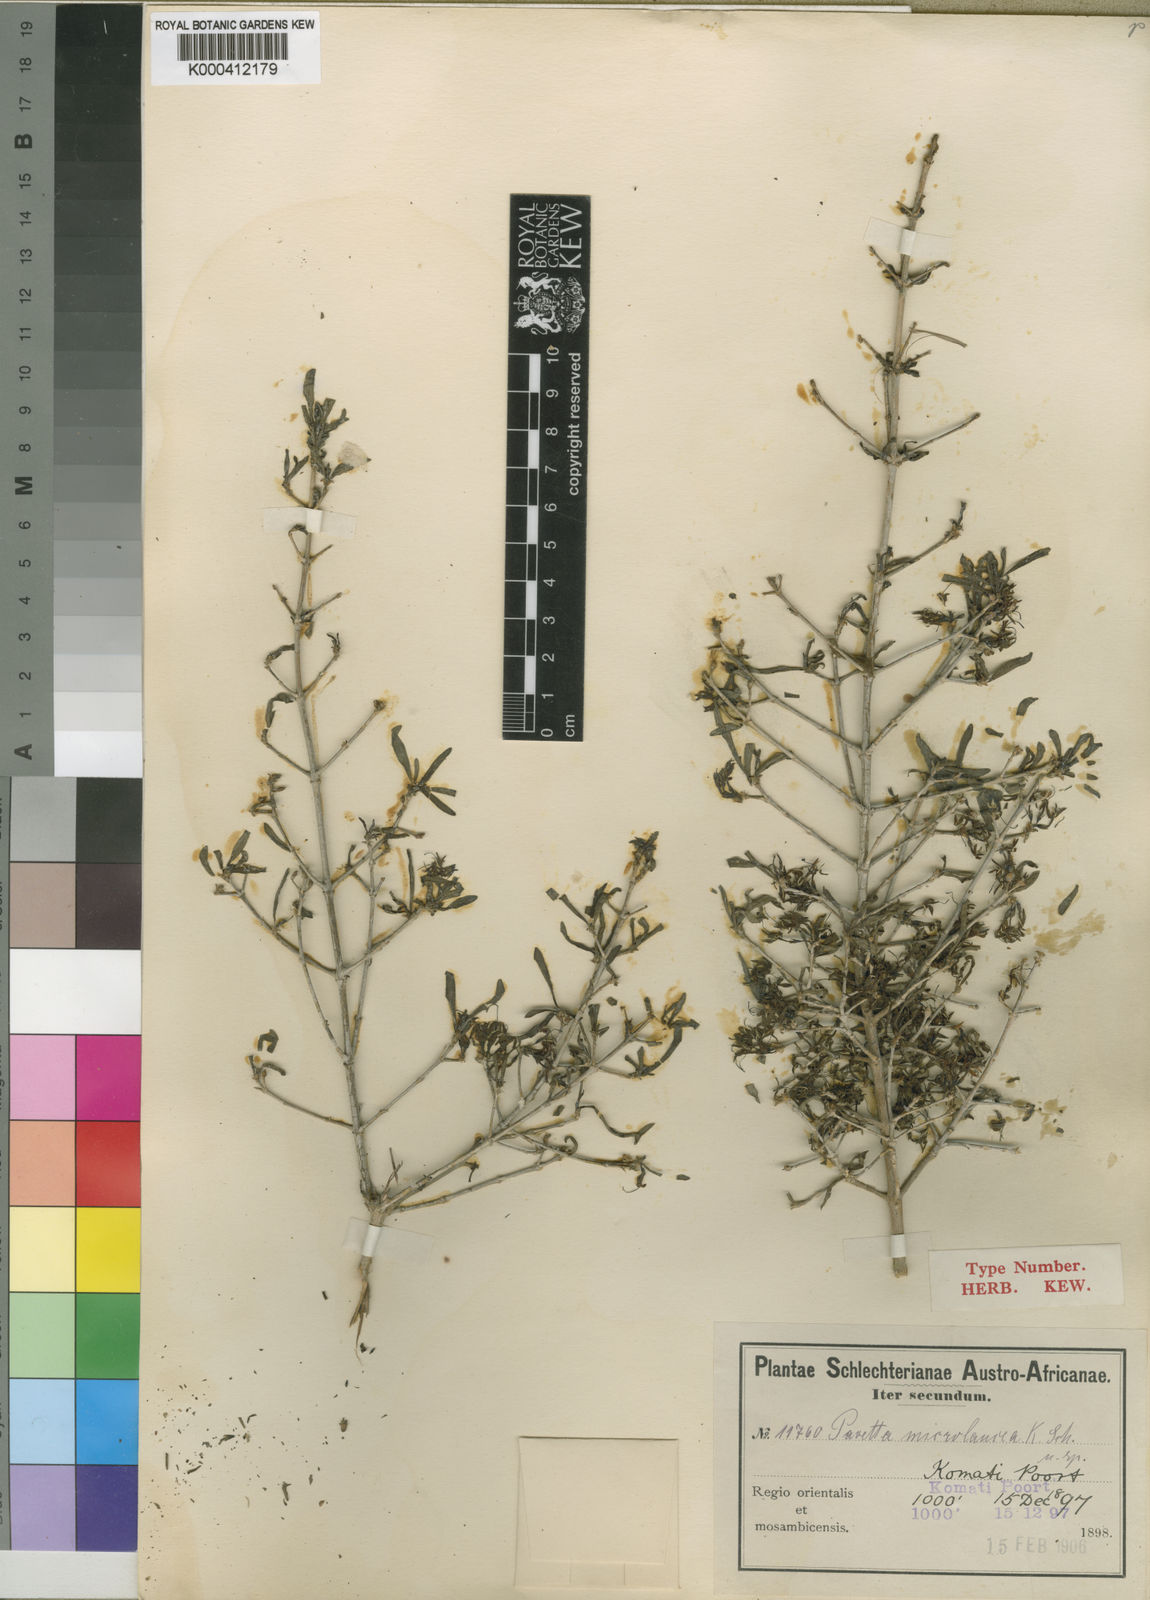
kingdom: Plantae
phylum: Tracheophyta
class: Magnoliopsida
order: Gentianales
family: Rubiaceae
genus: Pavetta
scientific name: Pavetta zeyheri
